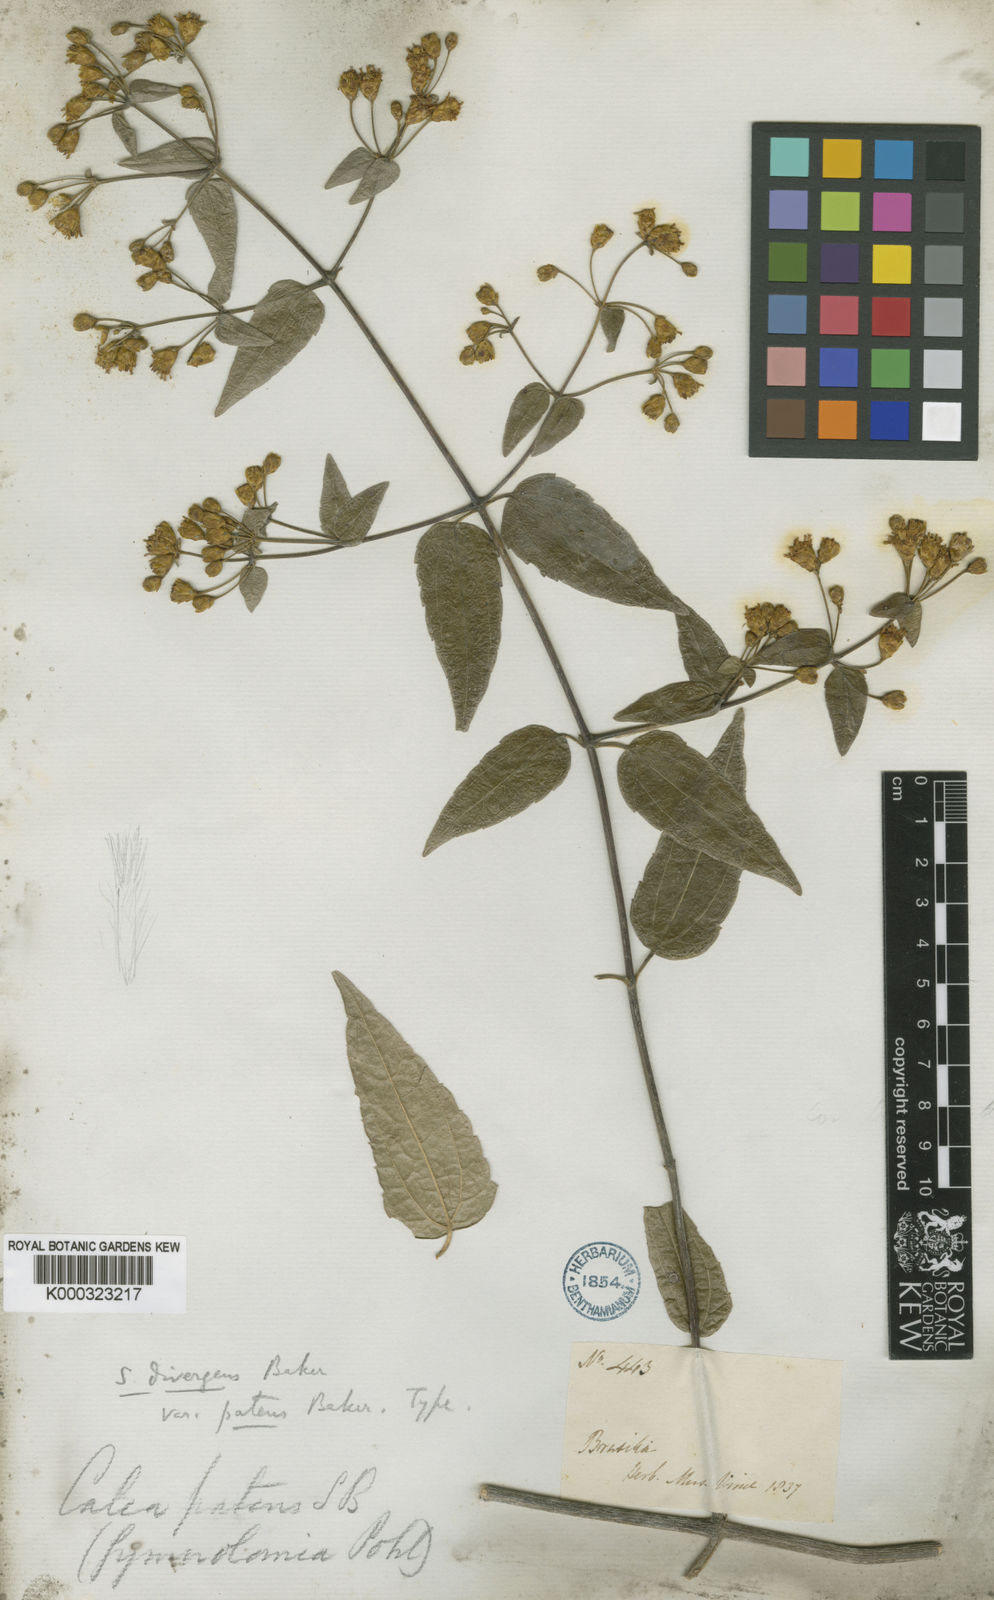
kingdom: Plantae
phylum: Tracheophyta
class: Magnoliopsida
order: Asterales
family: Asteraceae
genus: Calea
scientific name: Calea divergens
